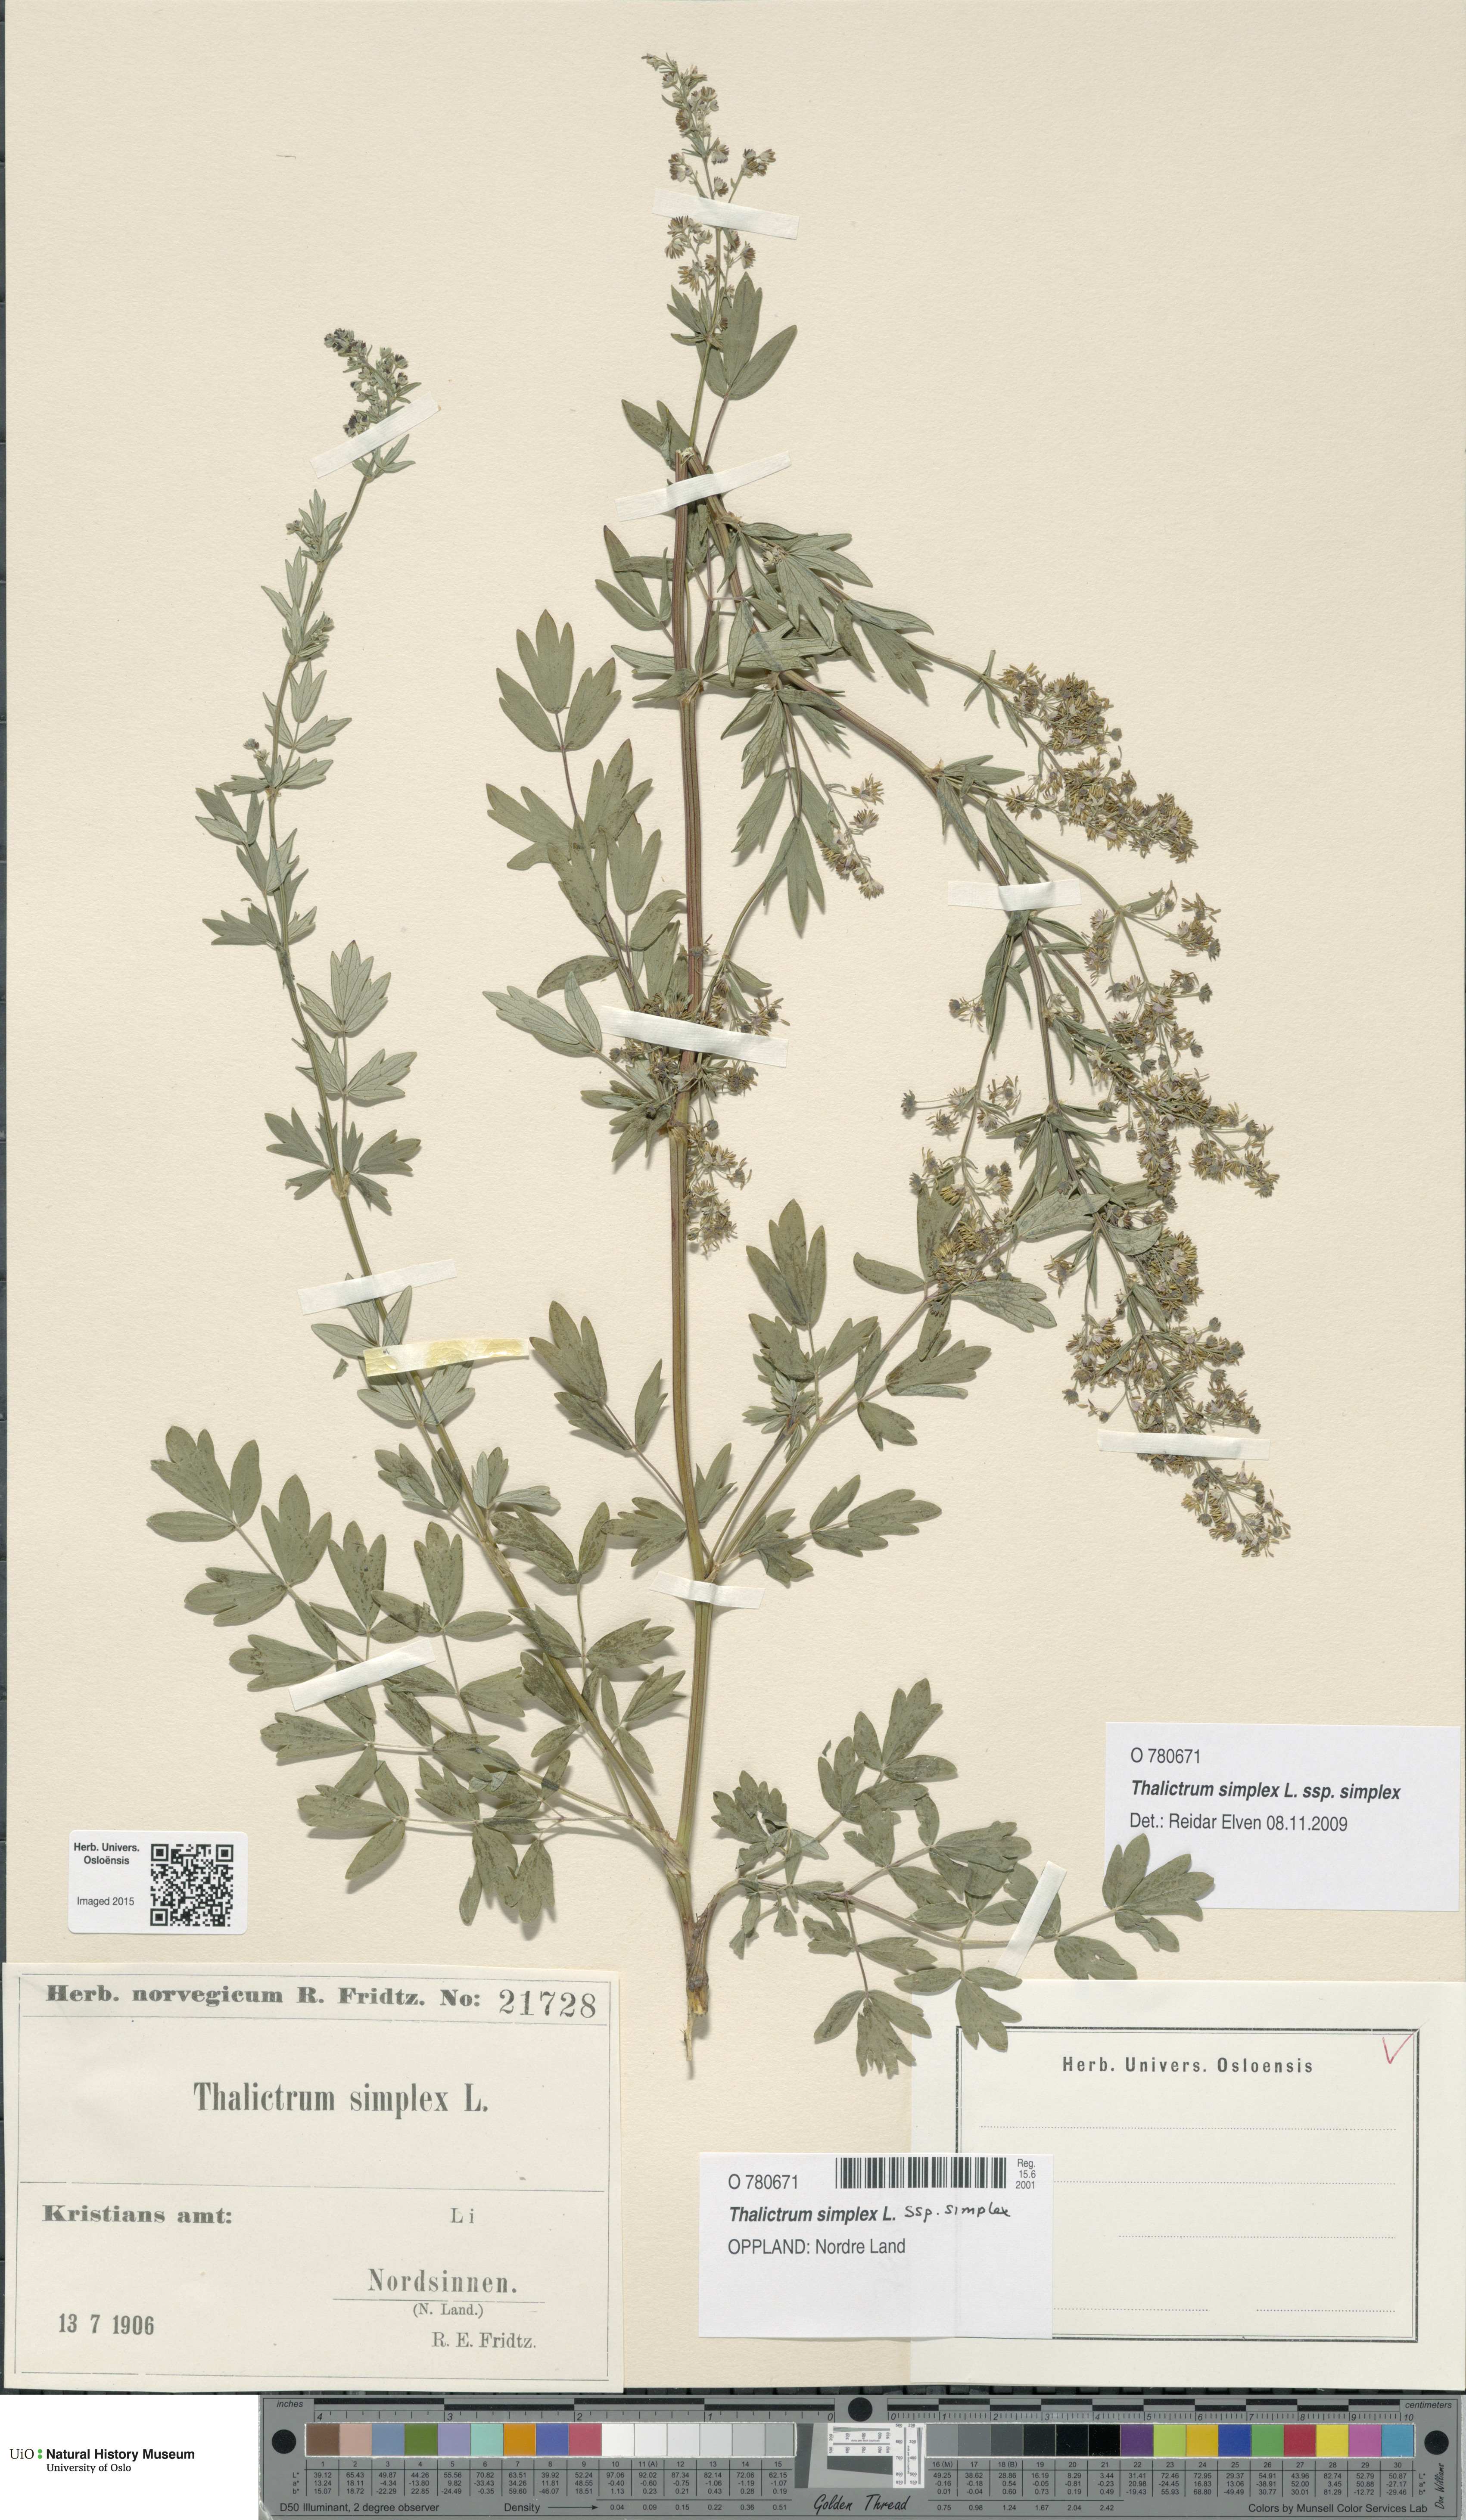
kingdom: Plantae
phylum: Tracheophyta
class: Magnoliopsida
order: Ranunculales
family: Ranunculaceae
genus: Thalictrum
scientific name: Thalictrum simplex
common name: Small meadow-rue
